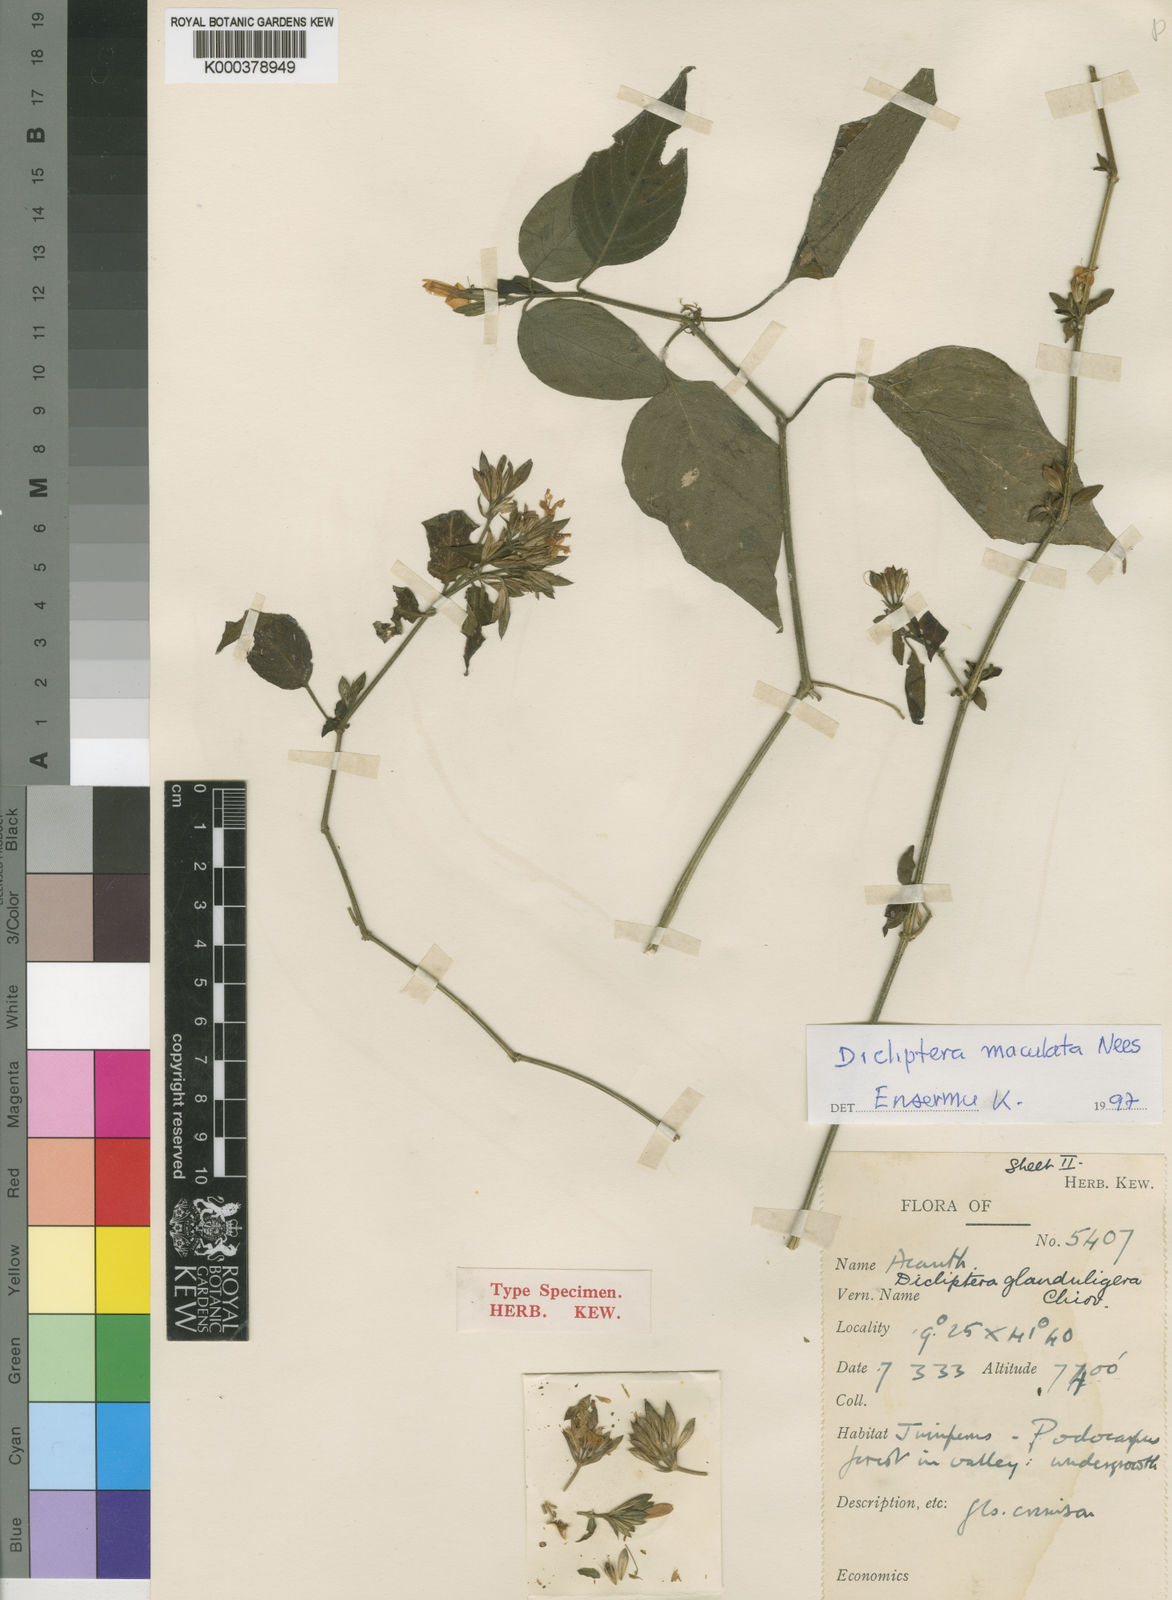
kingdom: Plantae
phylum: Tracheophyta
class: Magnoliopsida
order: Lamiales
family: Acanthaceae
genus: Dicliptera
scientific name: Dicliptera maculata
